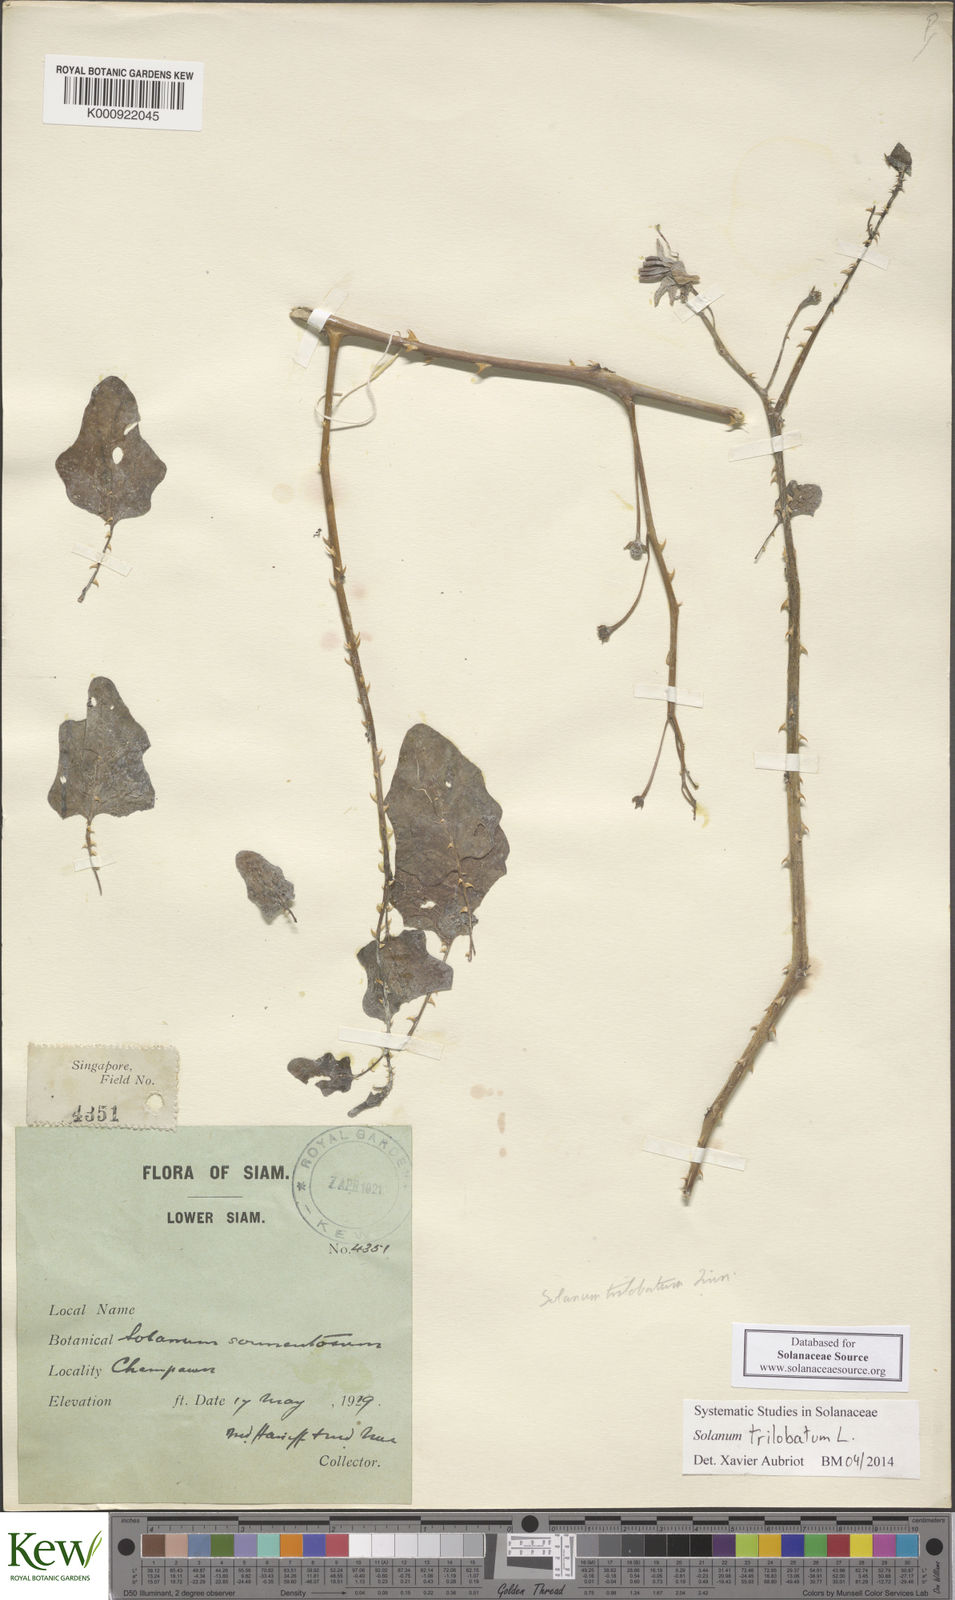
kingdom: Plantae
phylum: Tracheophyta
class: Magnoliopsida
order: Solanales
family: Solanaceae
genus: Solanum
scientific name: Solanum trilobatum
